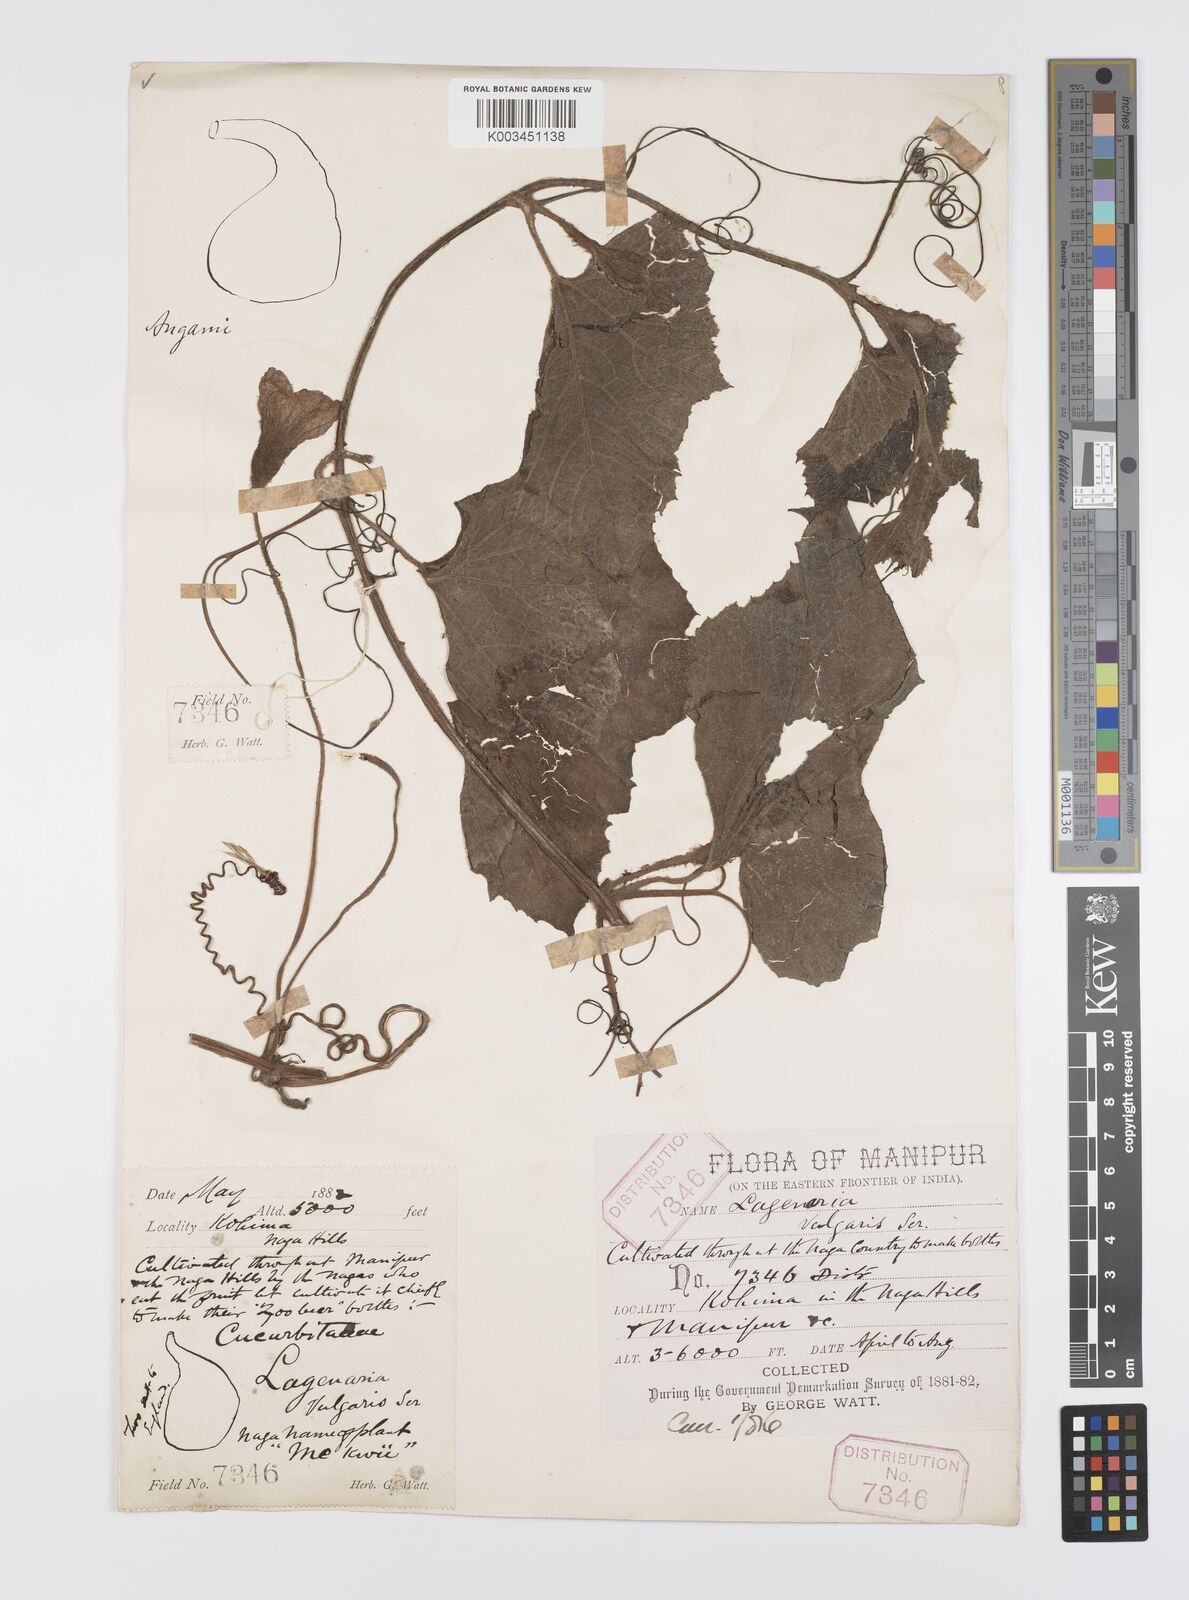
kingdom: Plantae
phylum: Tracheophyta
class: Magnoliopsida
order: Cucurbitales
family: Cucurbitaceae
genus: Lagenaria
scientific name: Lagenaria siceraria
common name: Bottle gourd
